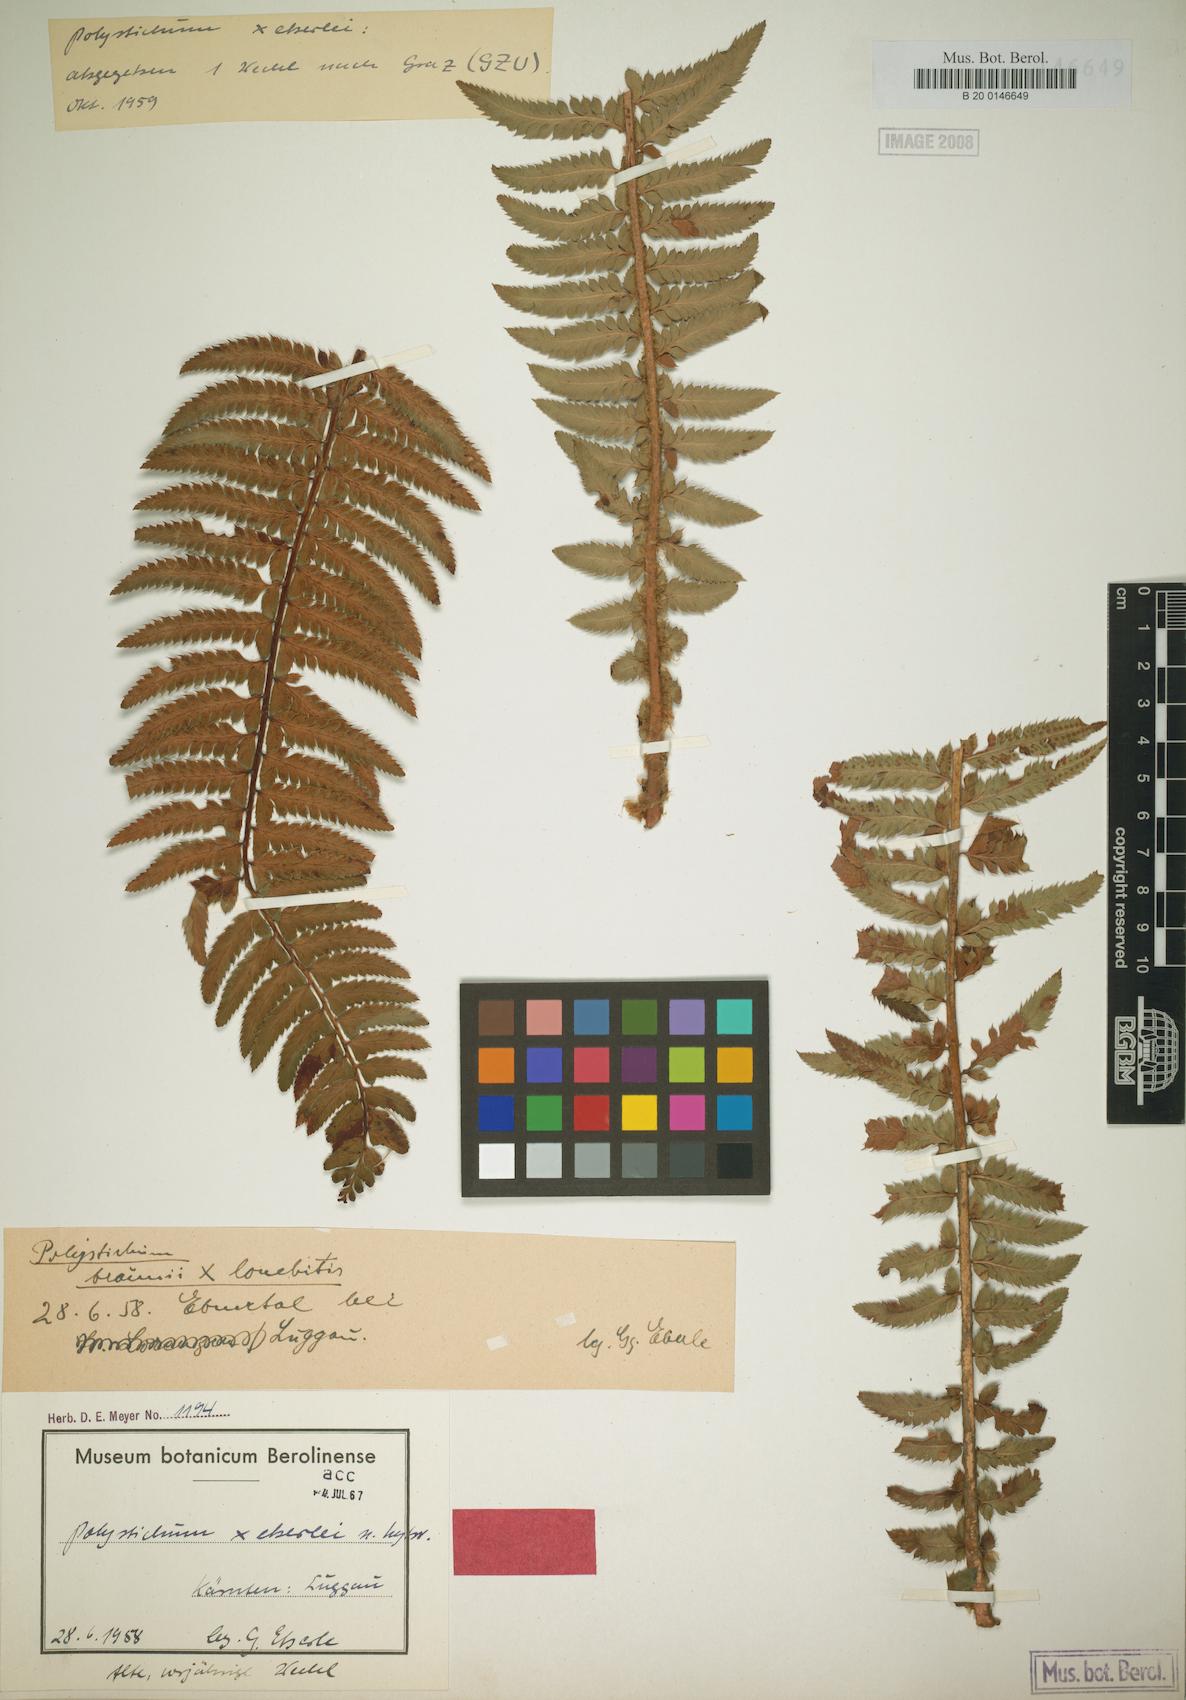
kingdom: Plantae
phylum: Tracheophyta
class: Polypodiopsida
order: Polypodiales
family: Dryopteridaceae
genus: Polystichum
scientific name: Polystichum illyricum
